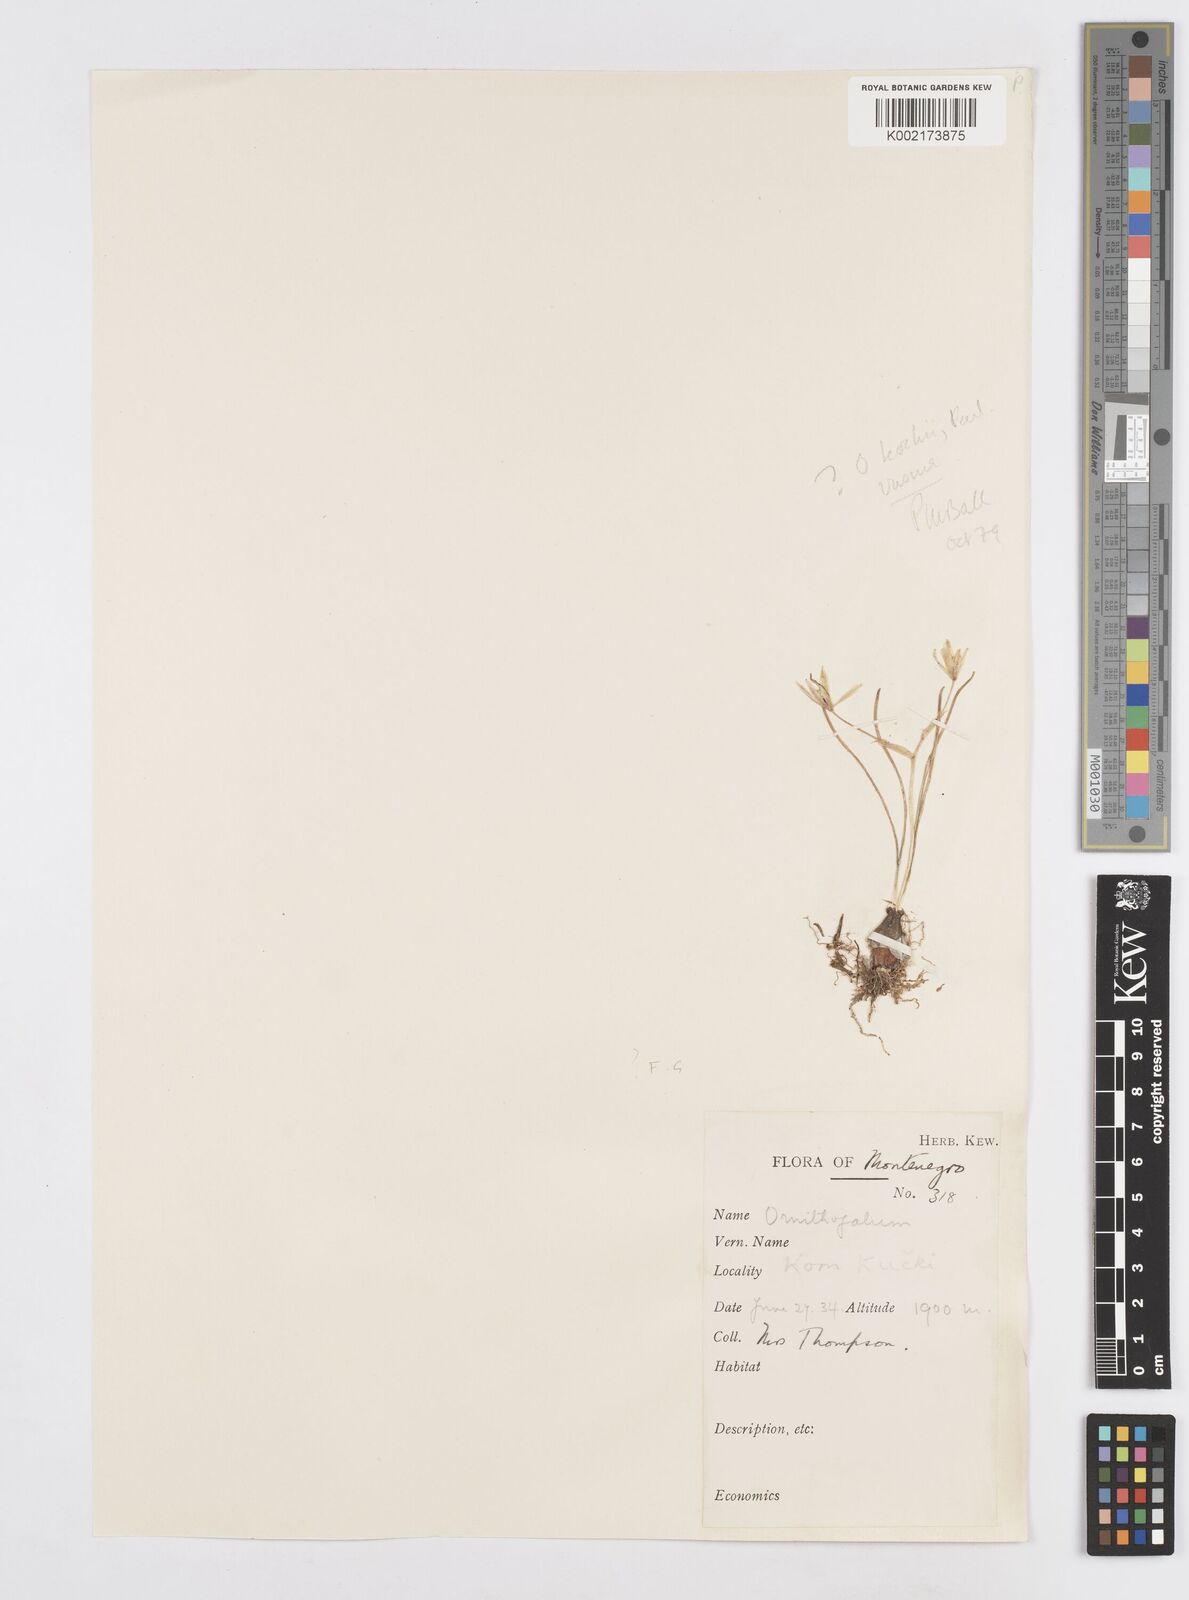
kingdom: Plantae
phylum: Tracheophyta
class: Liliopsida
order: Asparagales
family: Asparagaceae
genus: Ornithogalum
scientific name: Ornithogalum orthophyllum
